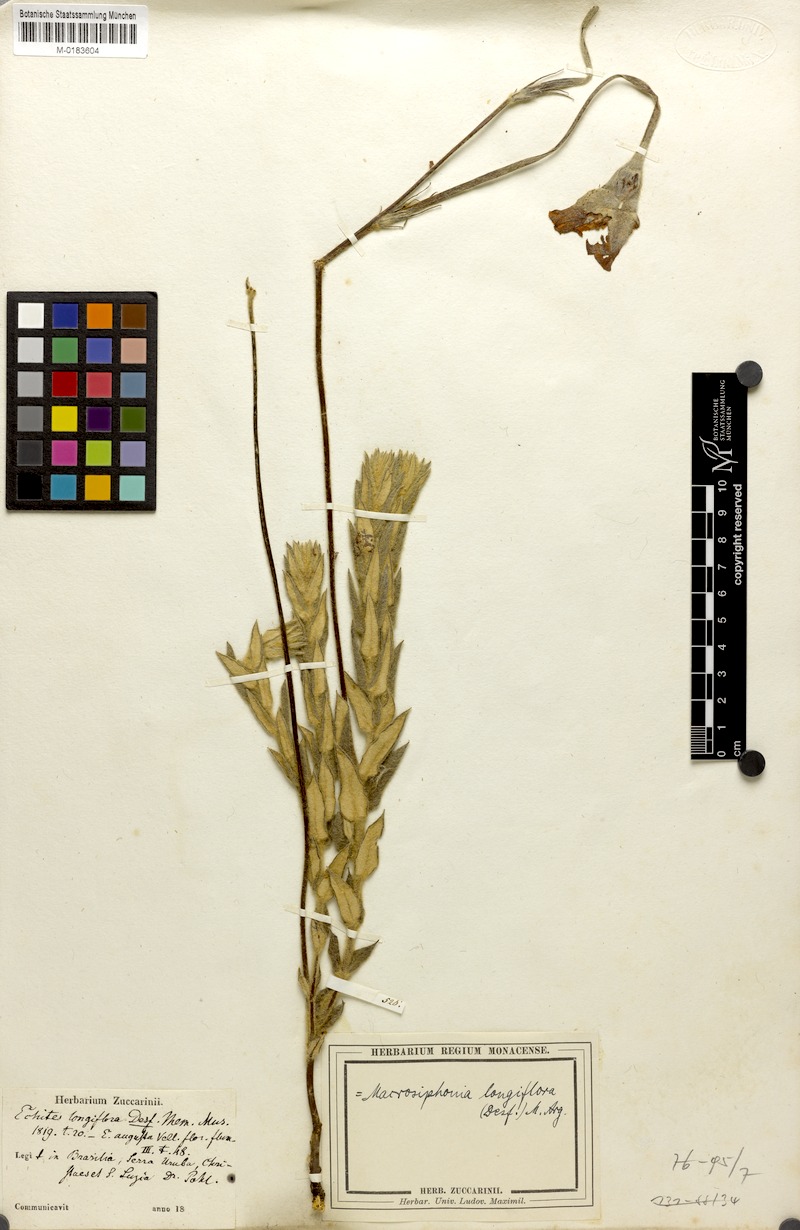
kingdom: Plantae
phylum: Tracheophyta
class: Magnoliopsida
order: Gentianales
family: Apocynaceae
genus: Mandevilla
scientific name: Mandevilla longiflora
